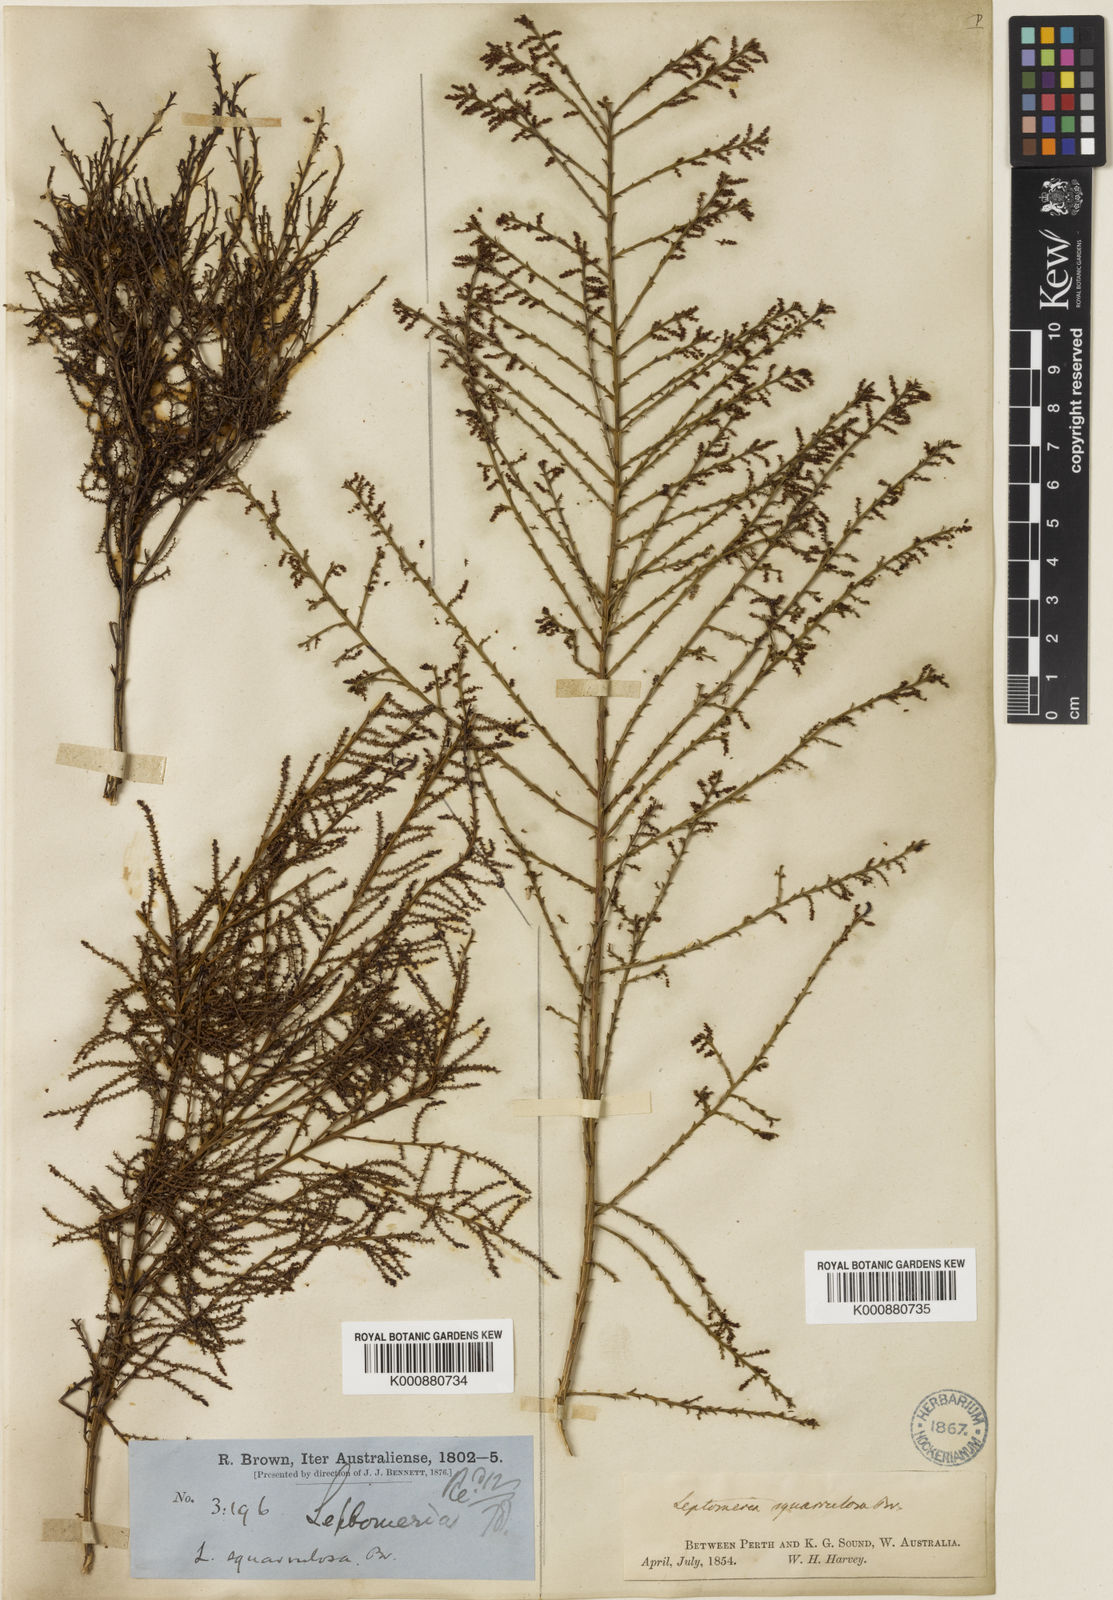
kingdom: Plantae
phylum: Tracheophyta
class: Magnoliopsida
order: Santalales
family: Amphorogynaceae
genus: Leptomeria
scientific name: Leptomeria squarrulosa
